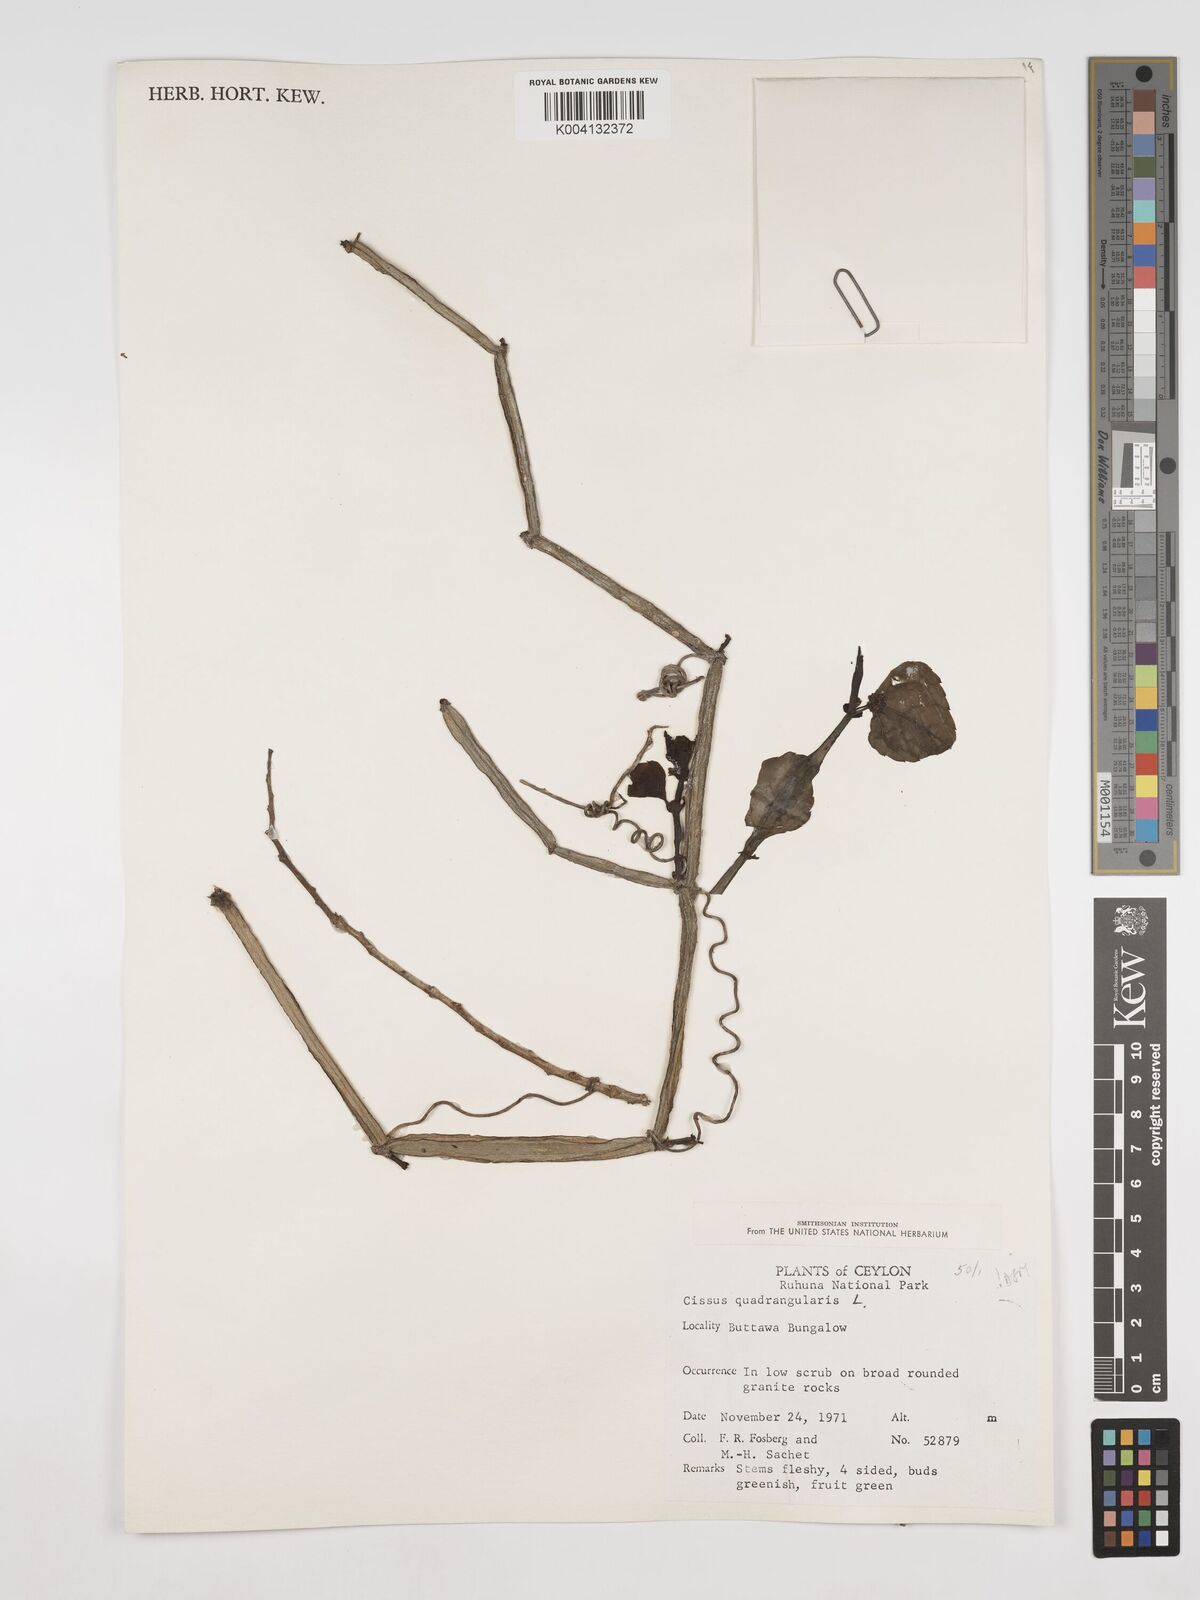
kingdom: Plantae
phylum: Tracheophyta
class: Magnoliopsida
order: Vitales
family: Vitaceae
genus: Cissus
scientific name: Cissus quadrangularis
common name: Veldt-grape
